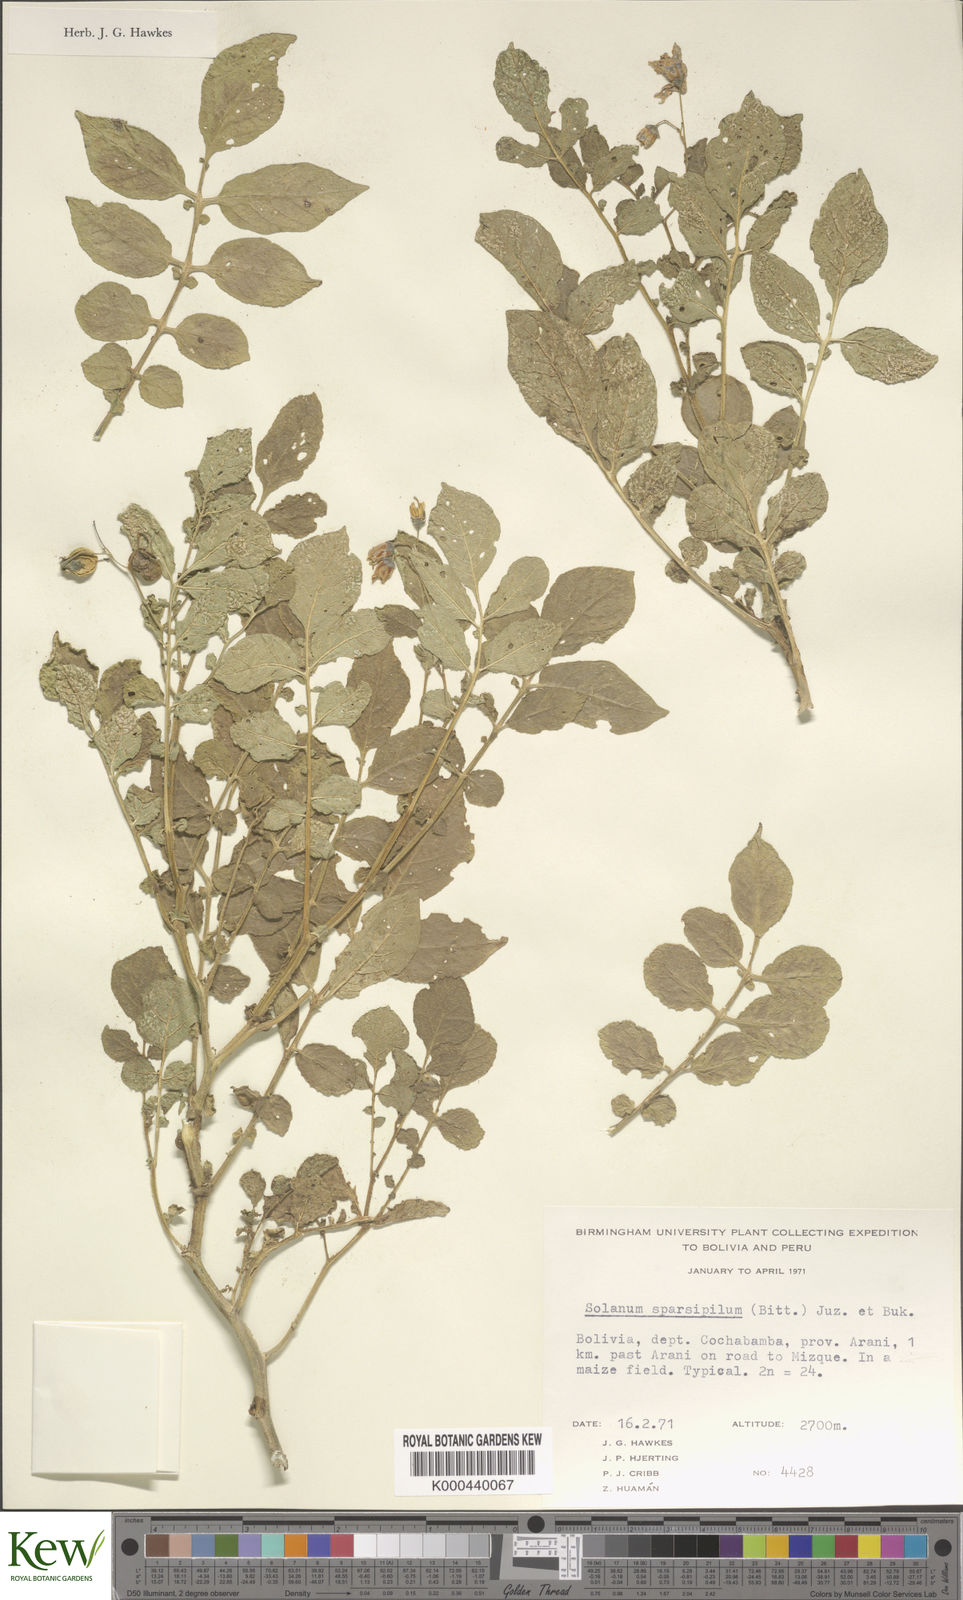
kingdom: Plantae
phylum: Tracheophyta
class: Magnoliopsida
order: Solanales
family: Solanaceae
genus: Solanum
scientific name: Solanum brevicaule
